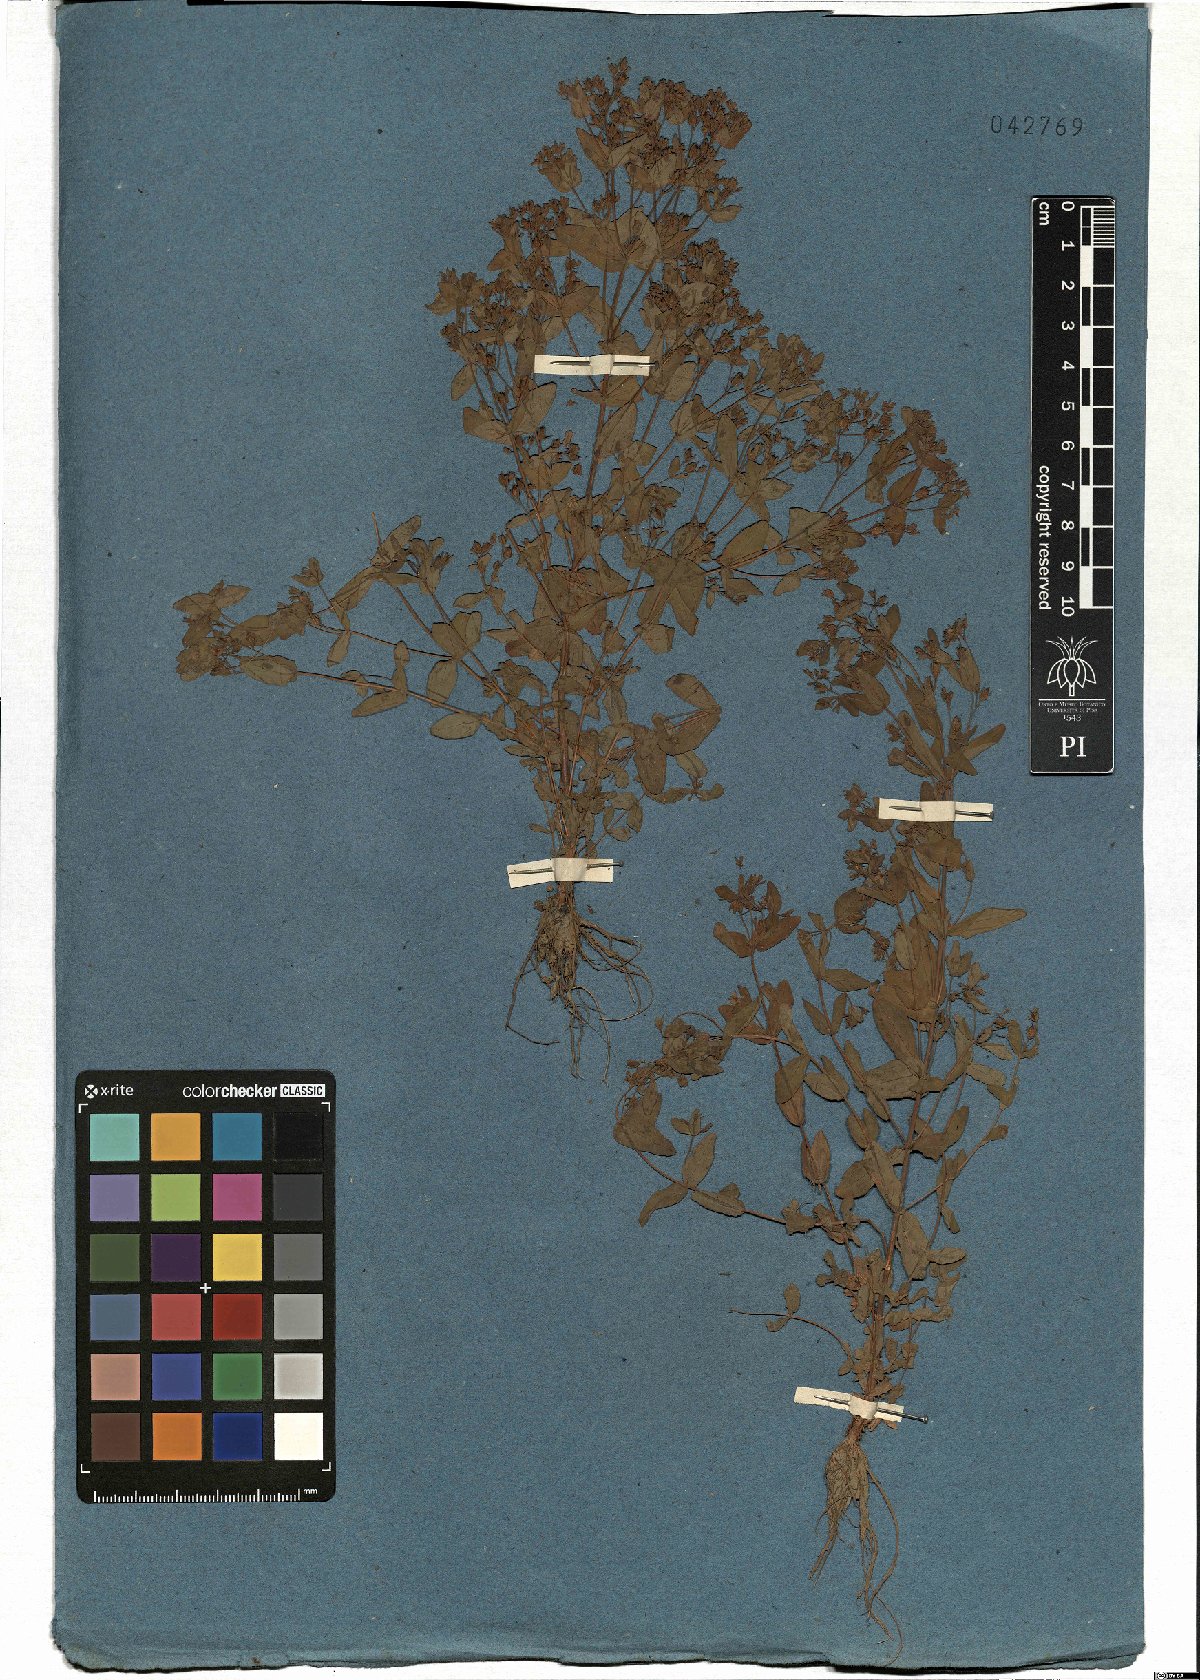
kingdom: Plantae
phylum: Tracheophyta
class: Magnoliopsida
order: Malpighiales
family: Hypericaceae
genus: Hypericum
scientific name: Hypericum mutilum
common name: Dwarf st. john's-wort
